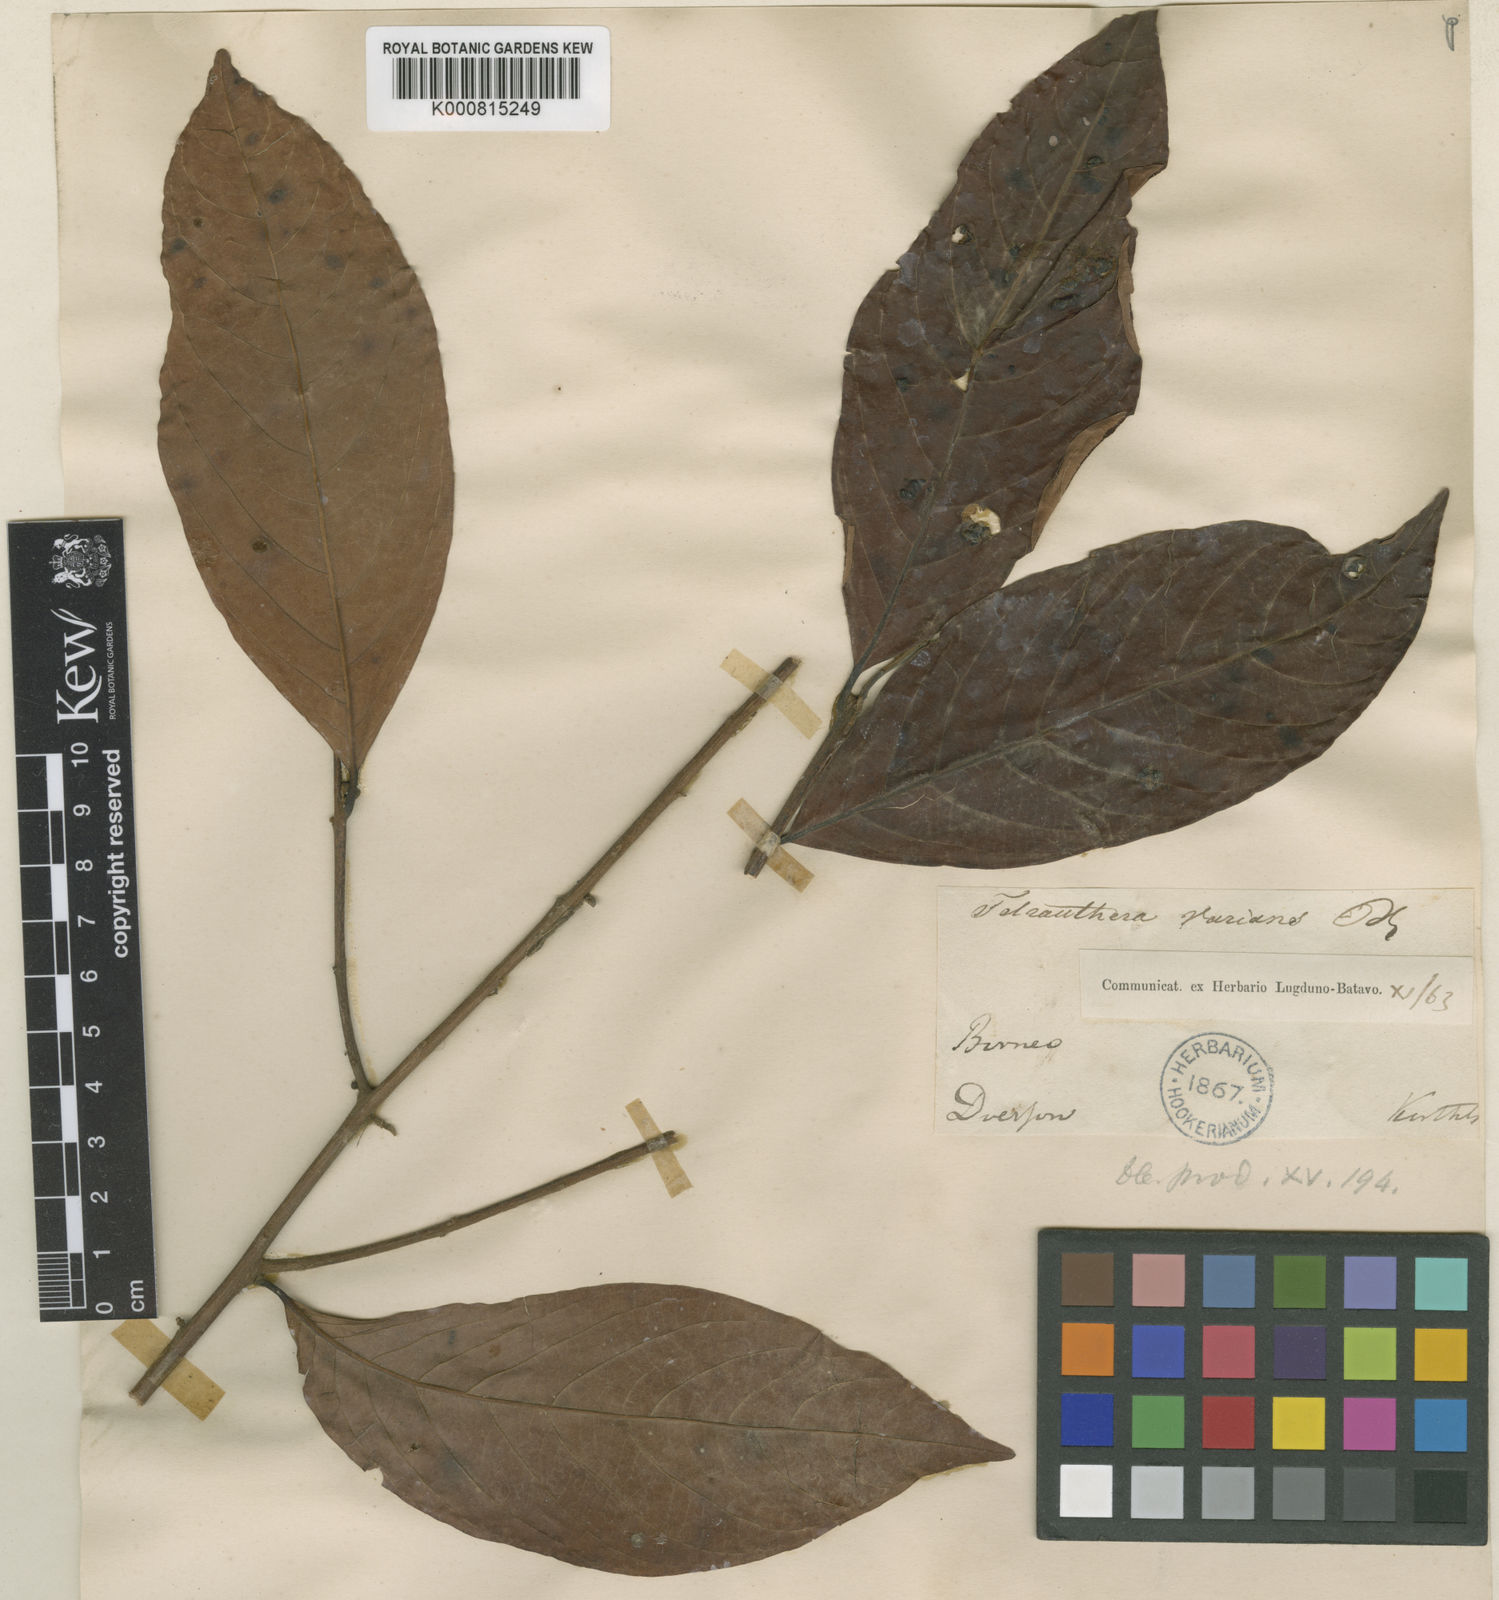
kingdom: Plantae
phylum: Tracheophyta
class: Magnoliopsida
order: Laurales
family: Lauraceae
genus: Litsea
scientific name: Litsea varians
